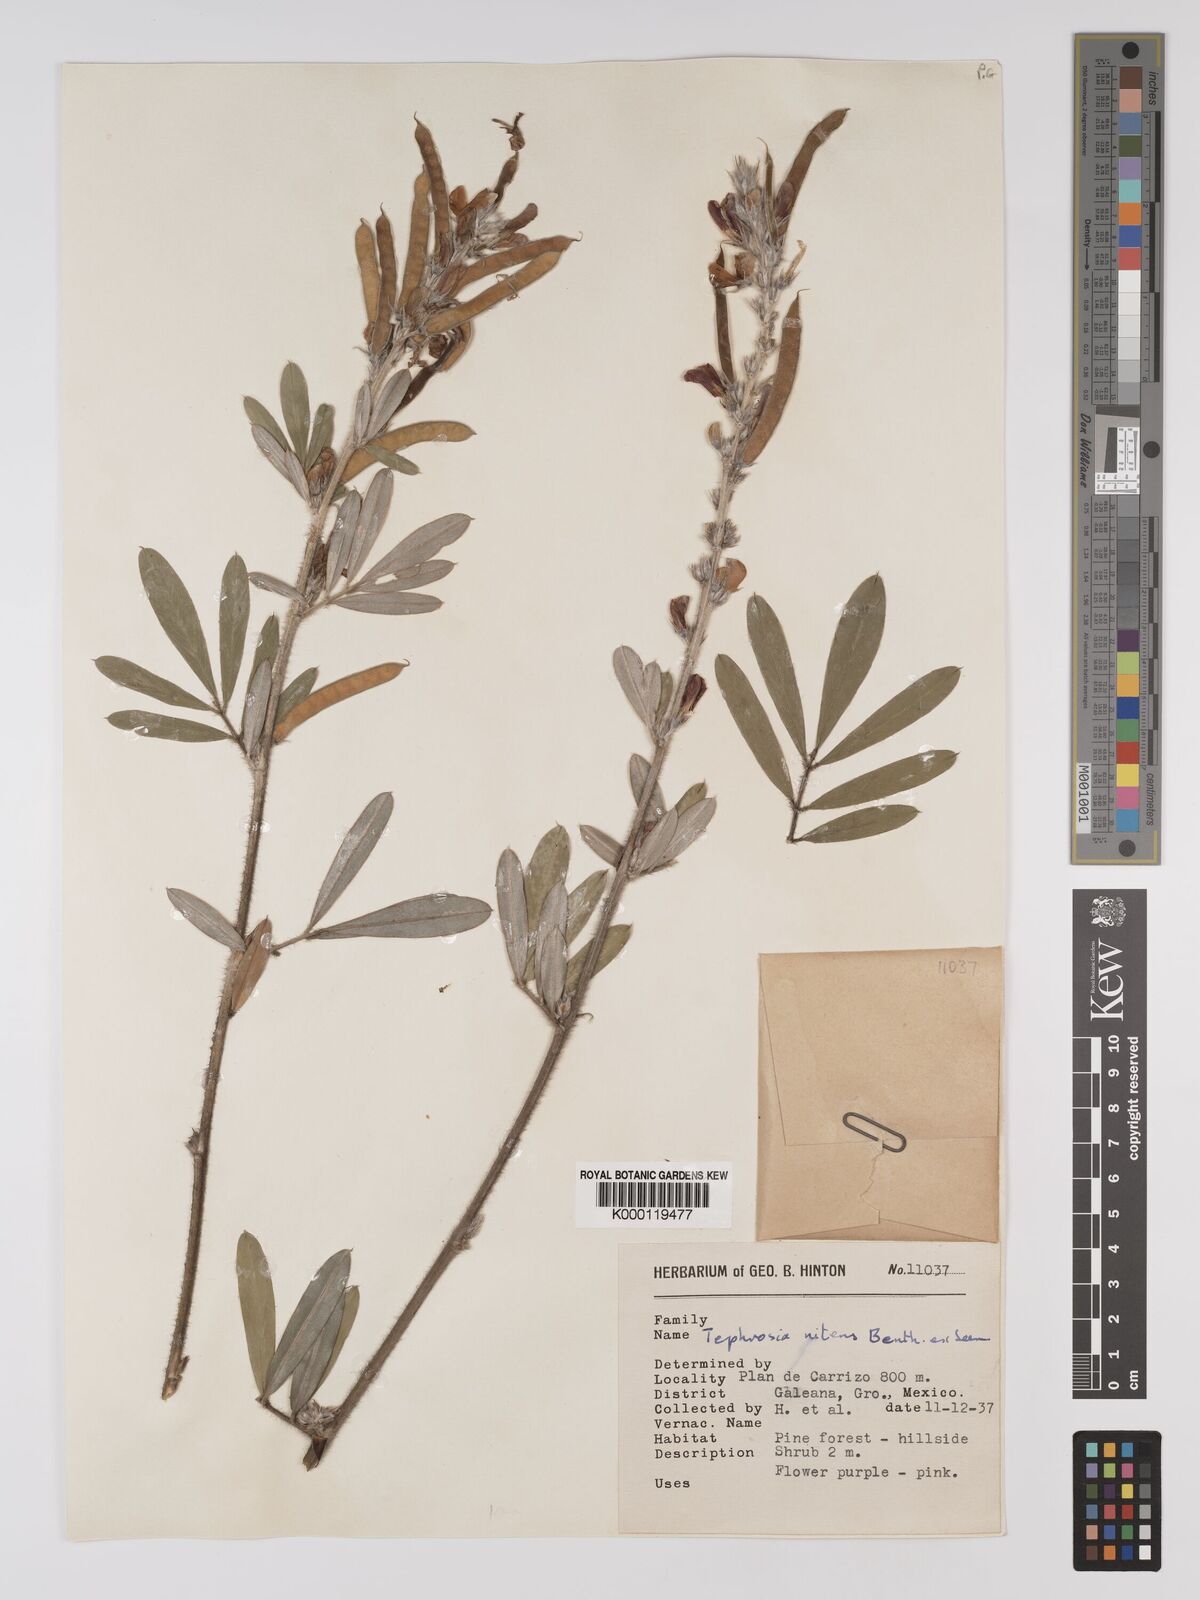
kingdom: Plantae
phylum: Tracheophyta
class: Magnoliopsida
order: Fabales
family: Fabaceae
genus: Tephrosia
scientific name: Tephrosia nitens
